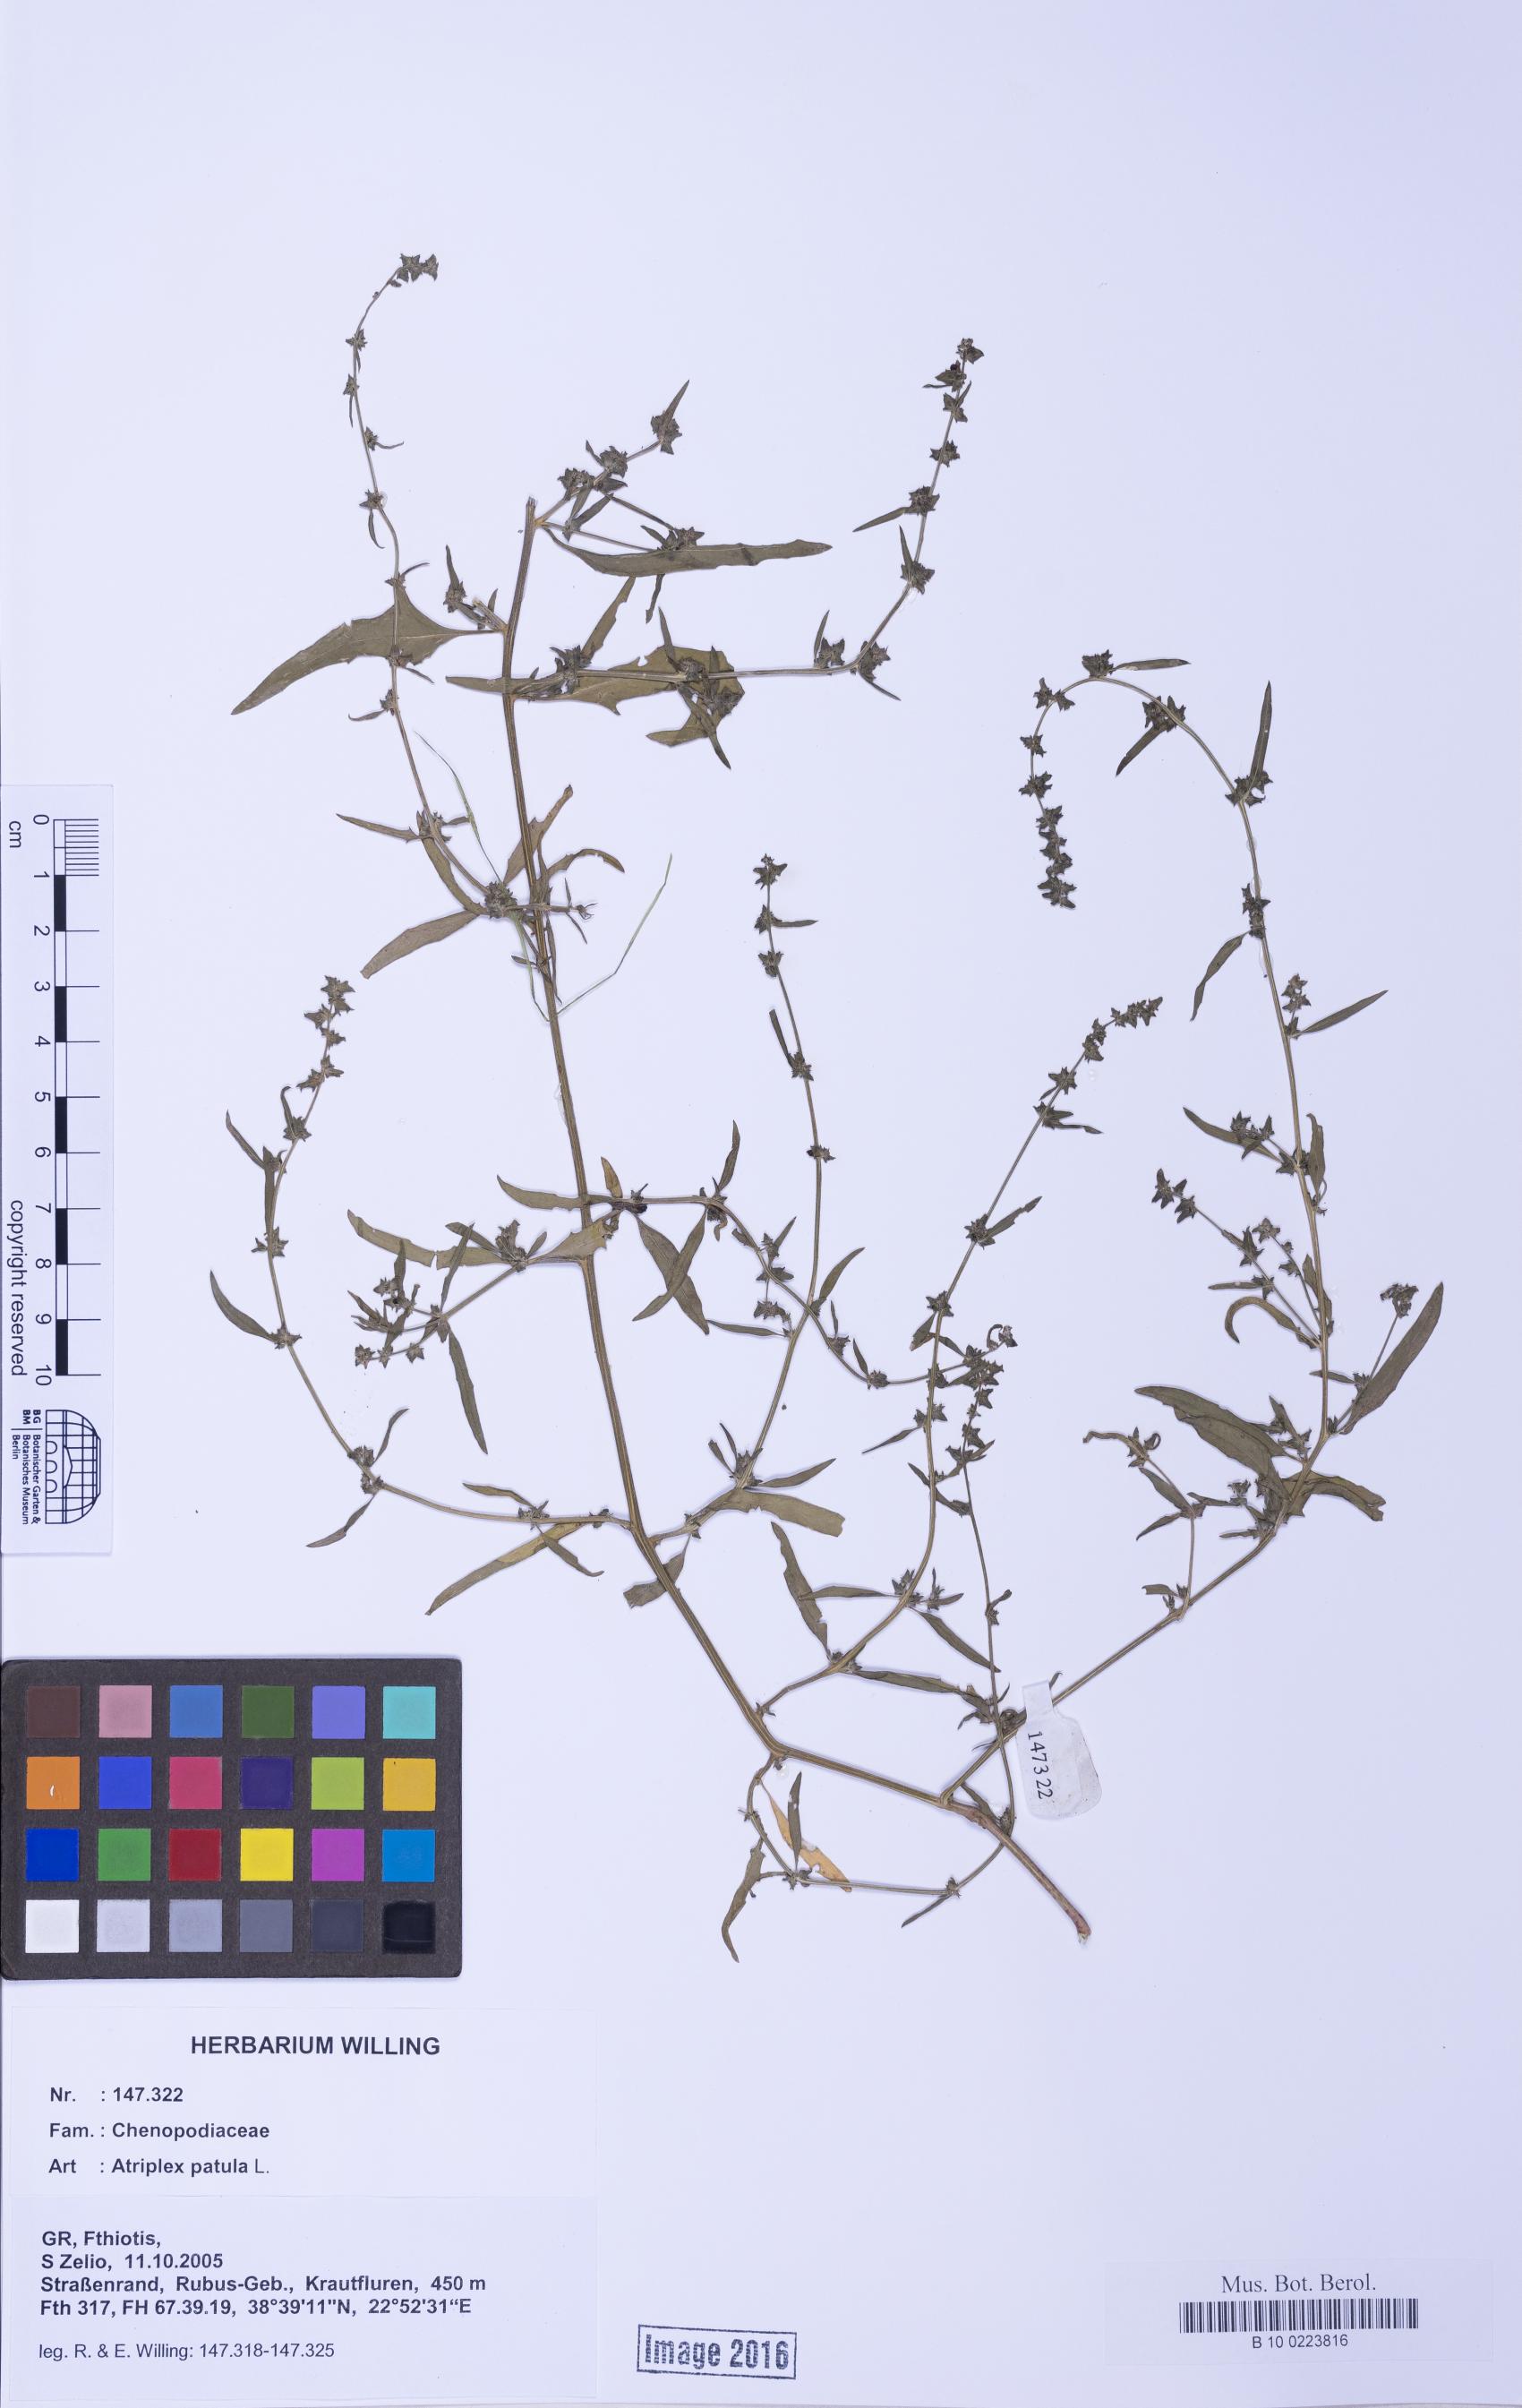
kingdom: Plantae
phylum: Tracheophyta
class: Magnoliopsida
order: Caryophyllales
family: Amaranthaceae
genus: Atriplex
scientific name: Atriplex patula
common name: Common orache
